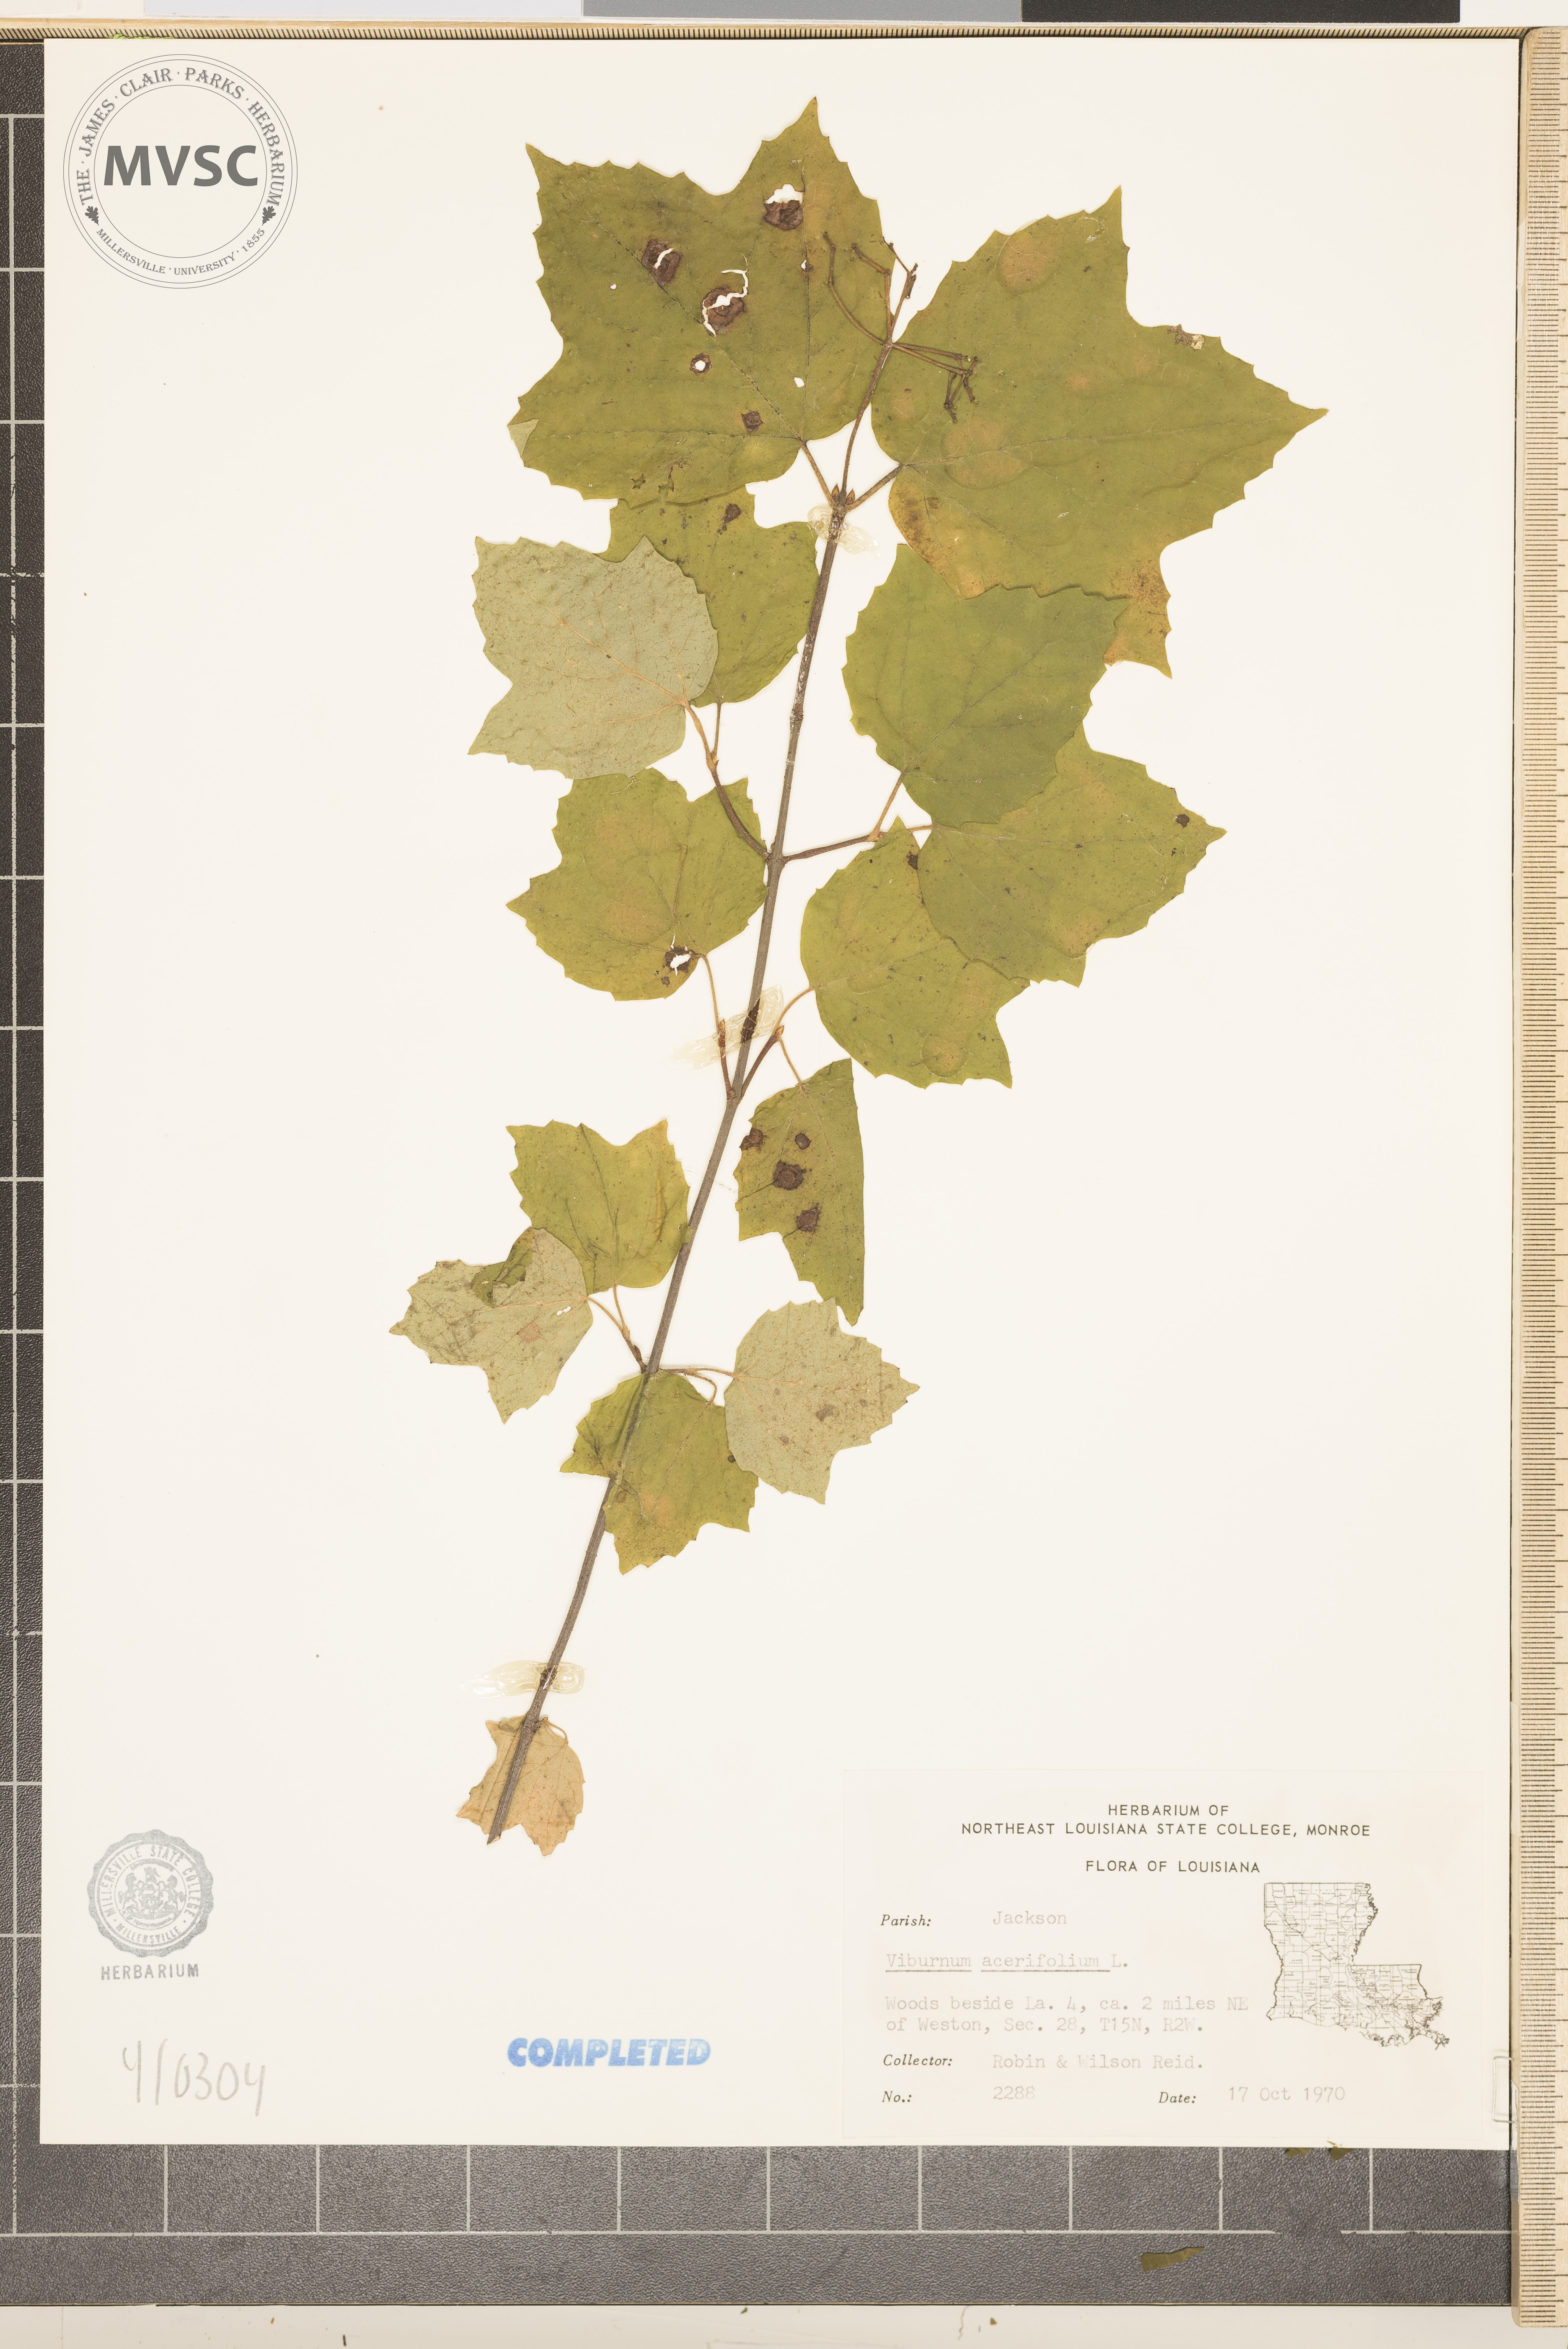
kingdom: Plantae
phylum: Tracheophyta
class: Magnoliopsida
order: Dipsacales
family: Viburnaceae
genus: Viburnum
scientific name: Viburnum acerifolium
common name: mapleleaf viburnum
